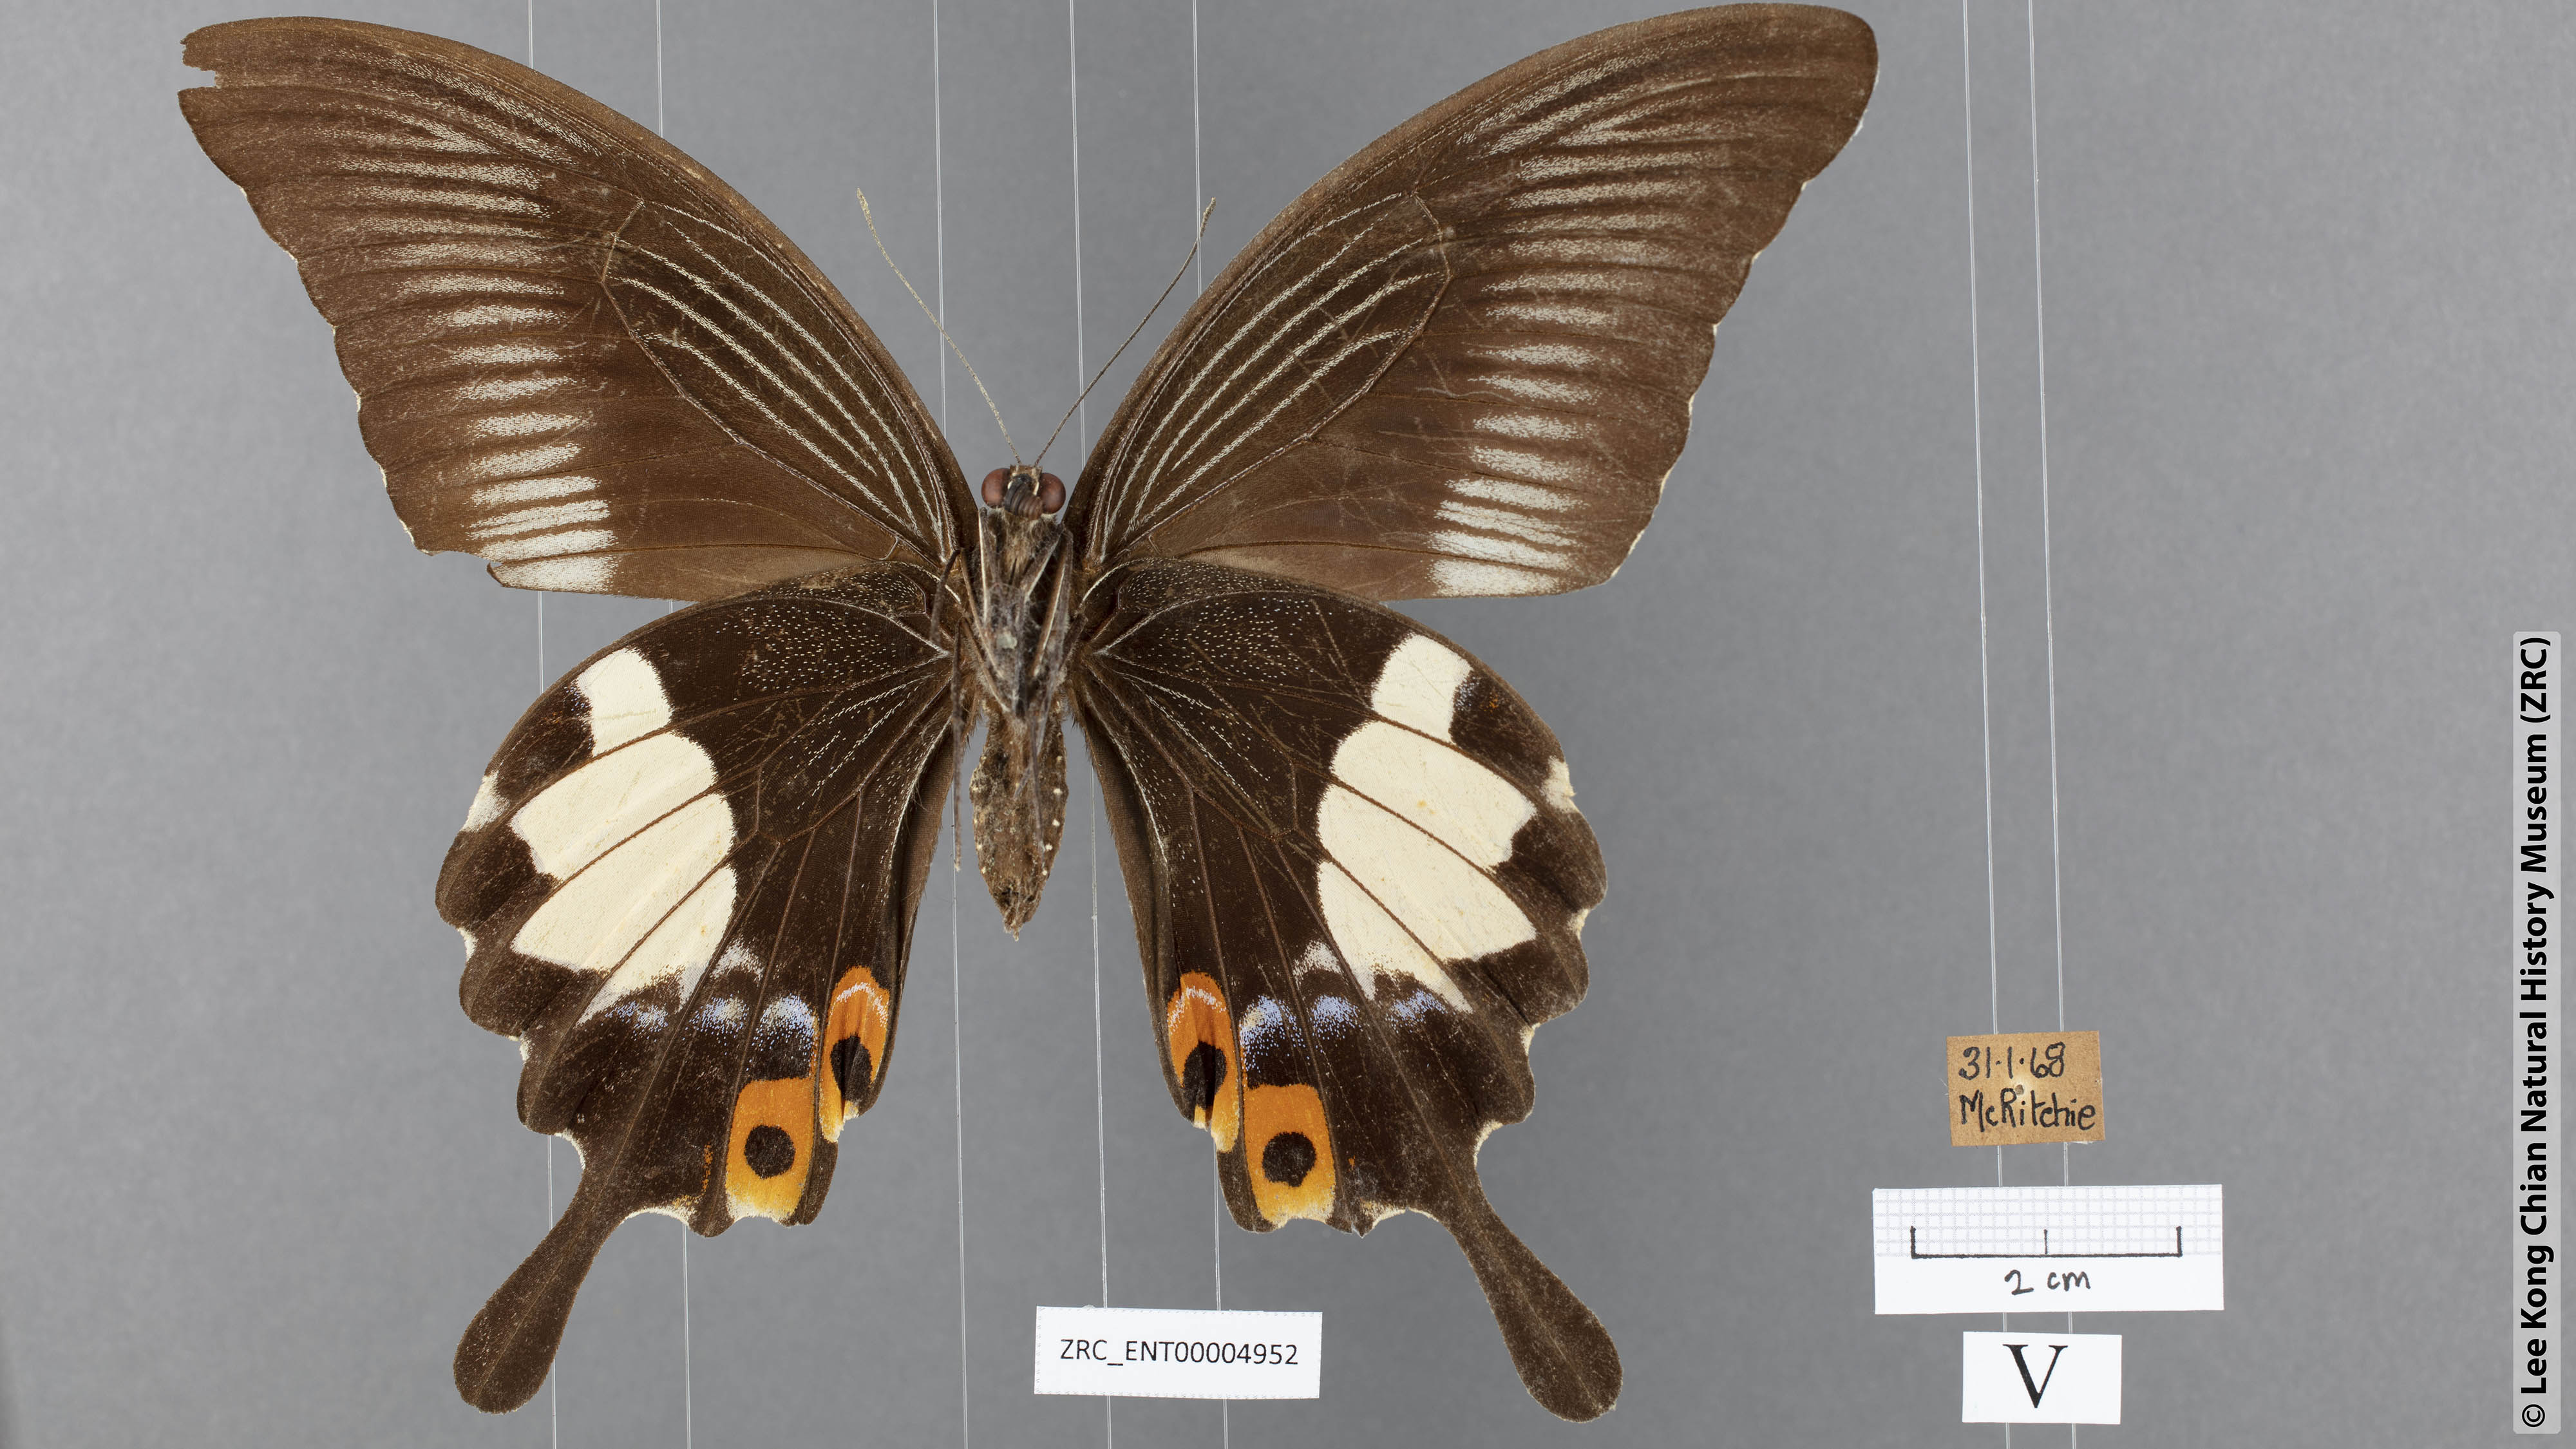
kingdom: Animalia
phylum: Arthropoda
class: Insecta
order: Lepidoptera
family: Papilionidae
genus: Papilio
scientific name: Papilio iswara
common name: Great helen swallowtail
